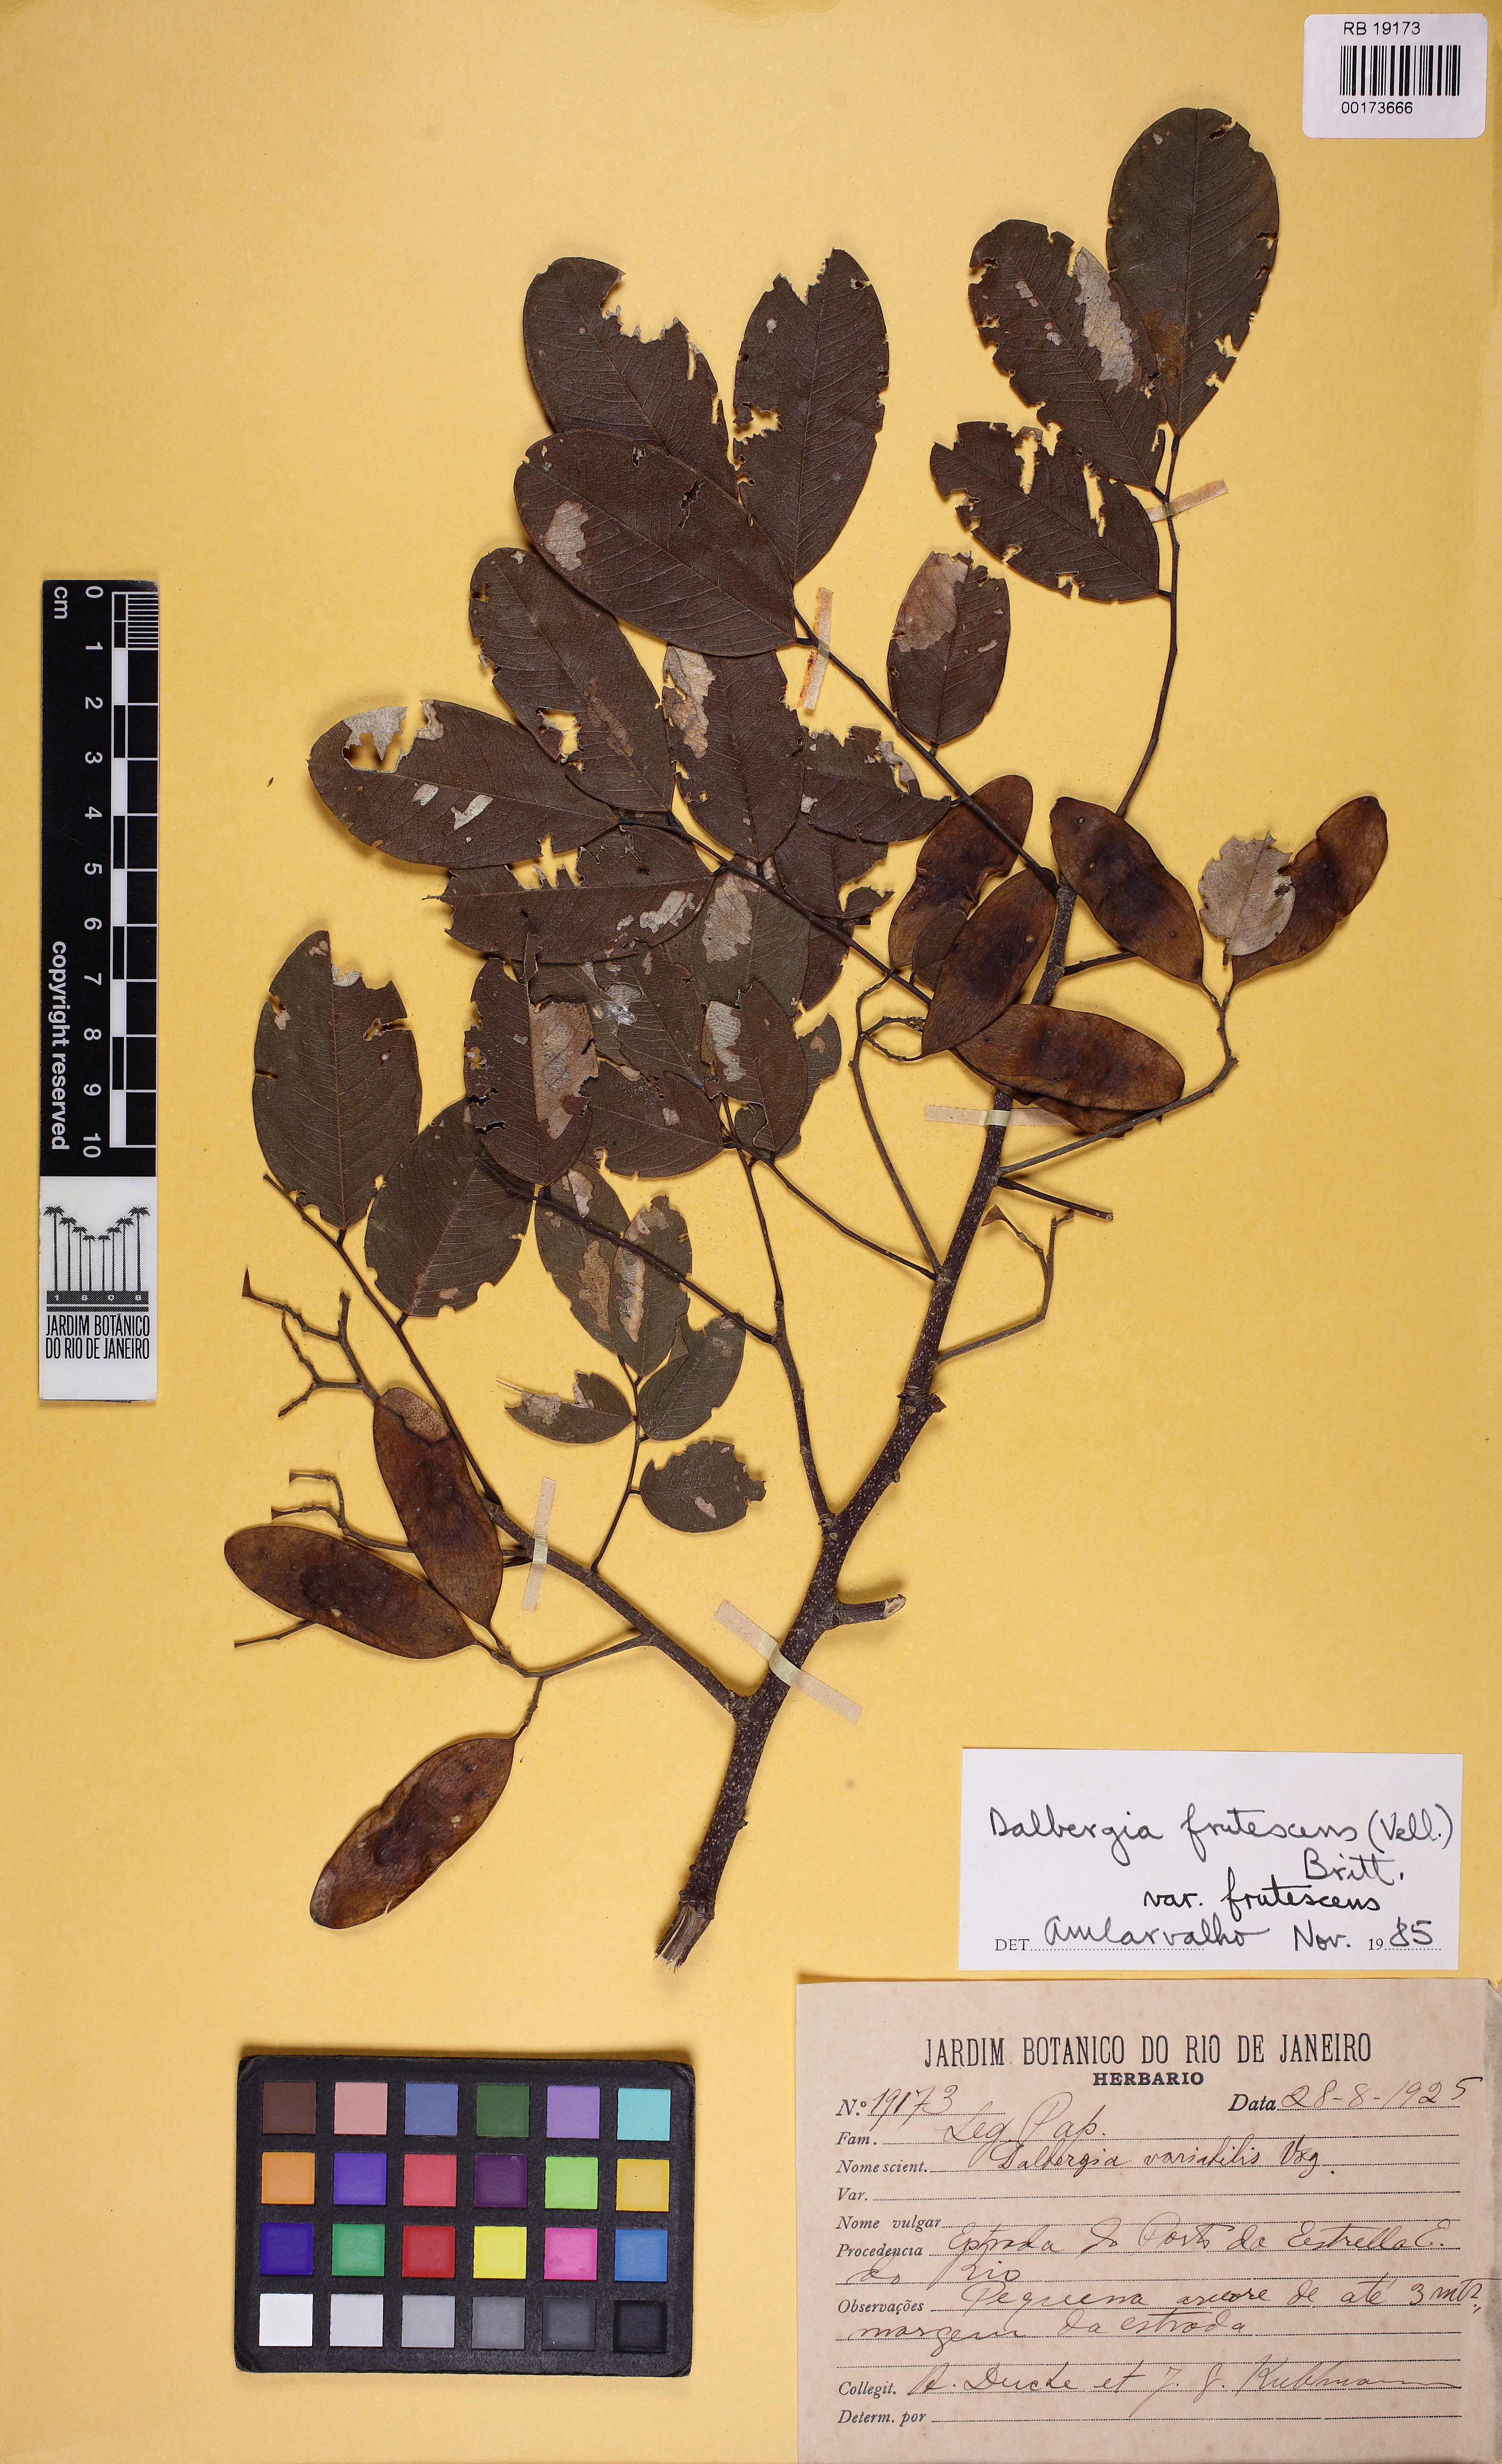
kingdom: Plantae
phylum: Tracheophyta
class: Magnoliopsida
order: Fabales
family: Fabaceae
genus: Dalbergia
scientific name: Dalbergia frutescens
